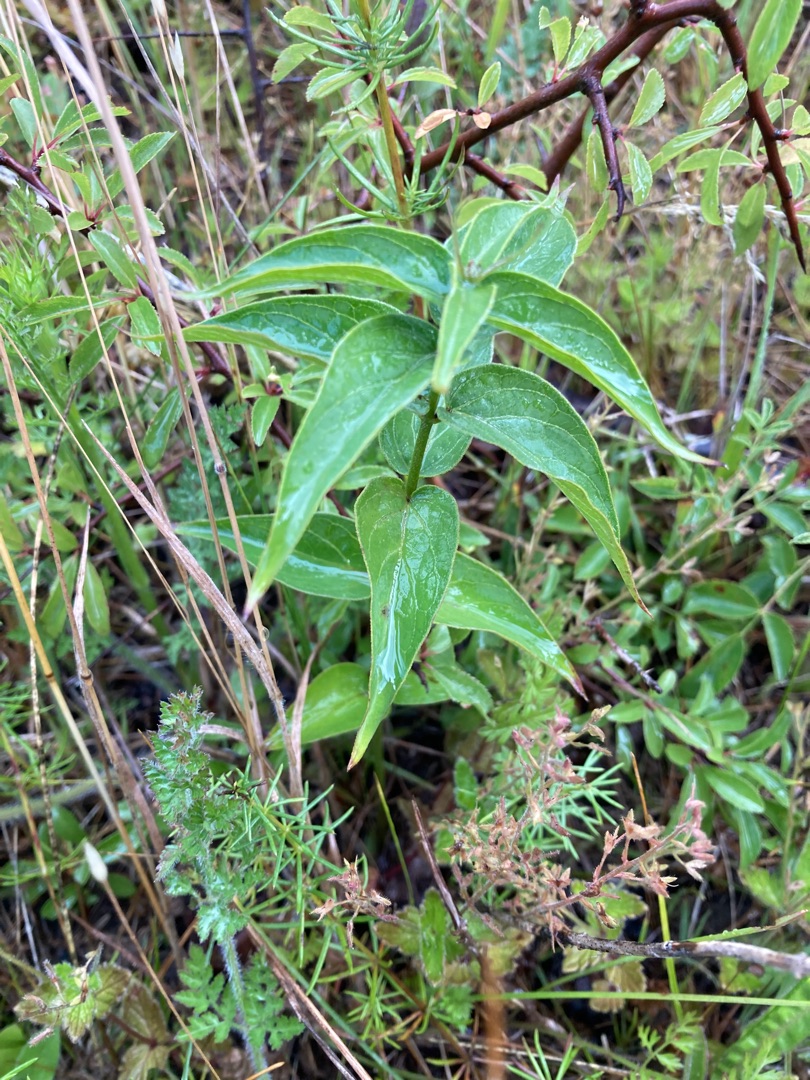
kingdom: Plantae
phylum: Tracheophyta
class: Magnoliopsida
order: Gentianales
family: Apocynaceae
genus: Vincetoxicum
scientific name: Vincetoxicum hirundinaria
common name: Svalerod
